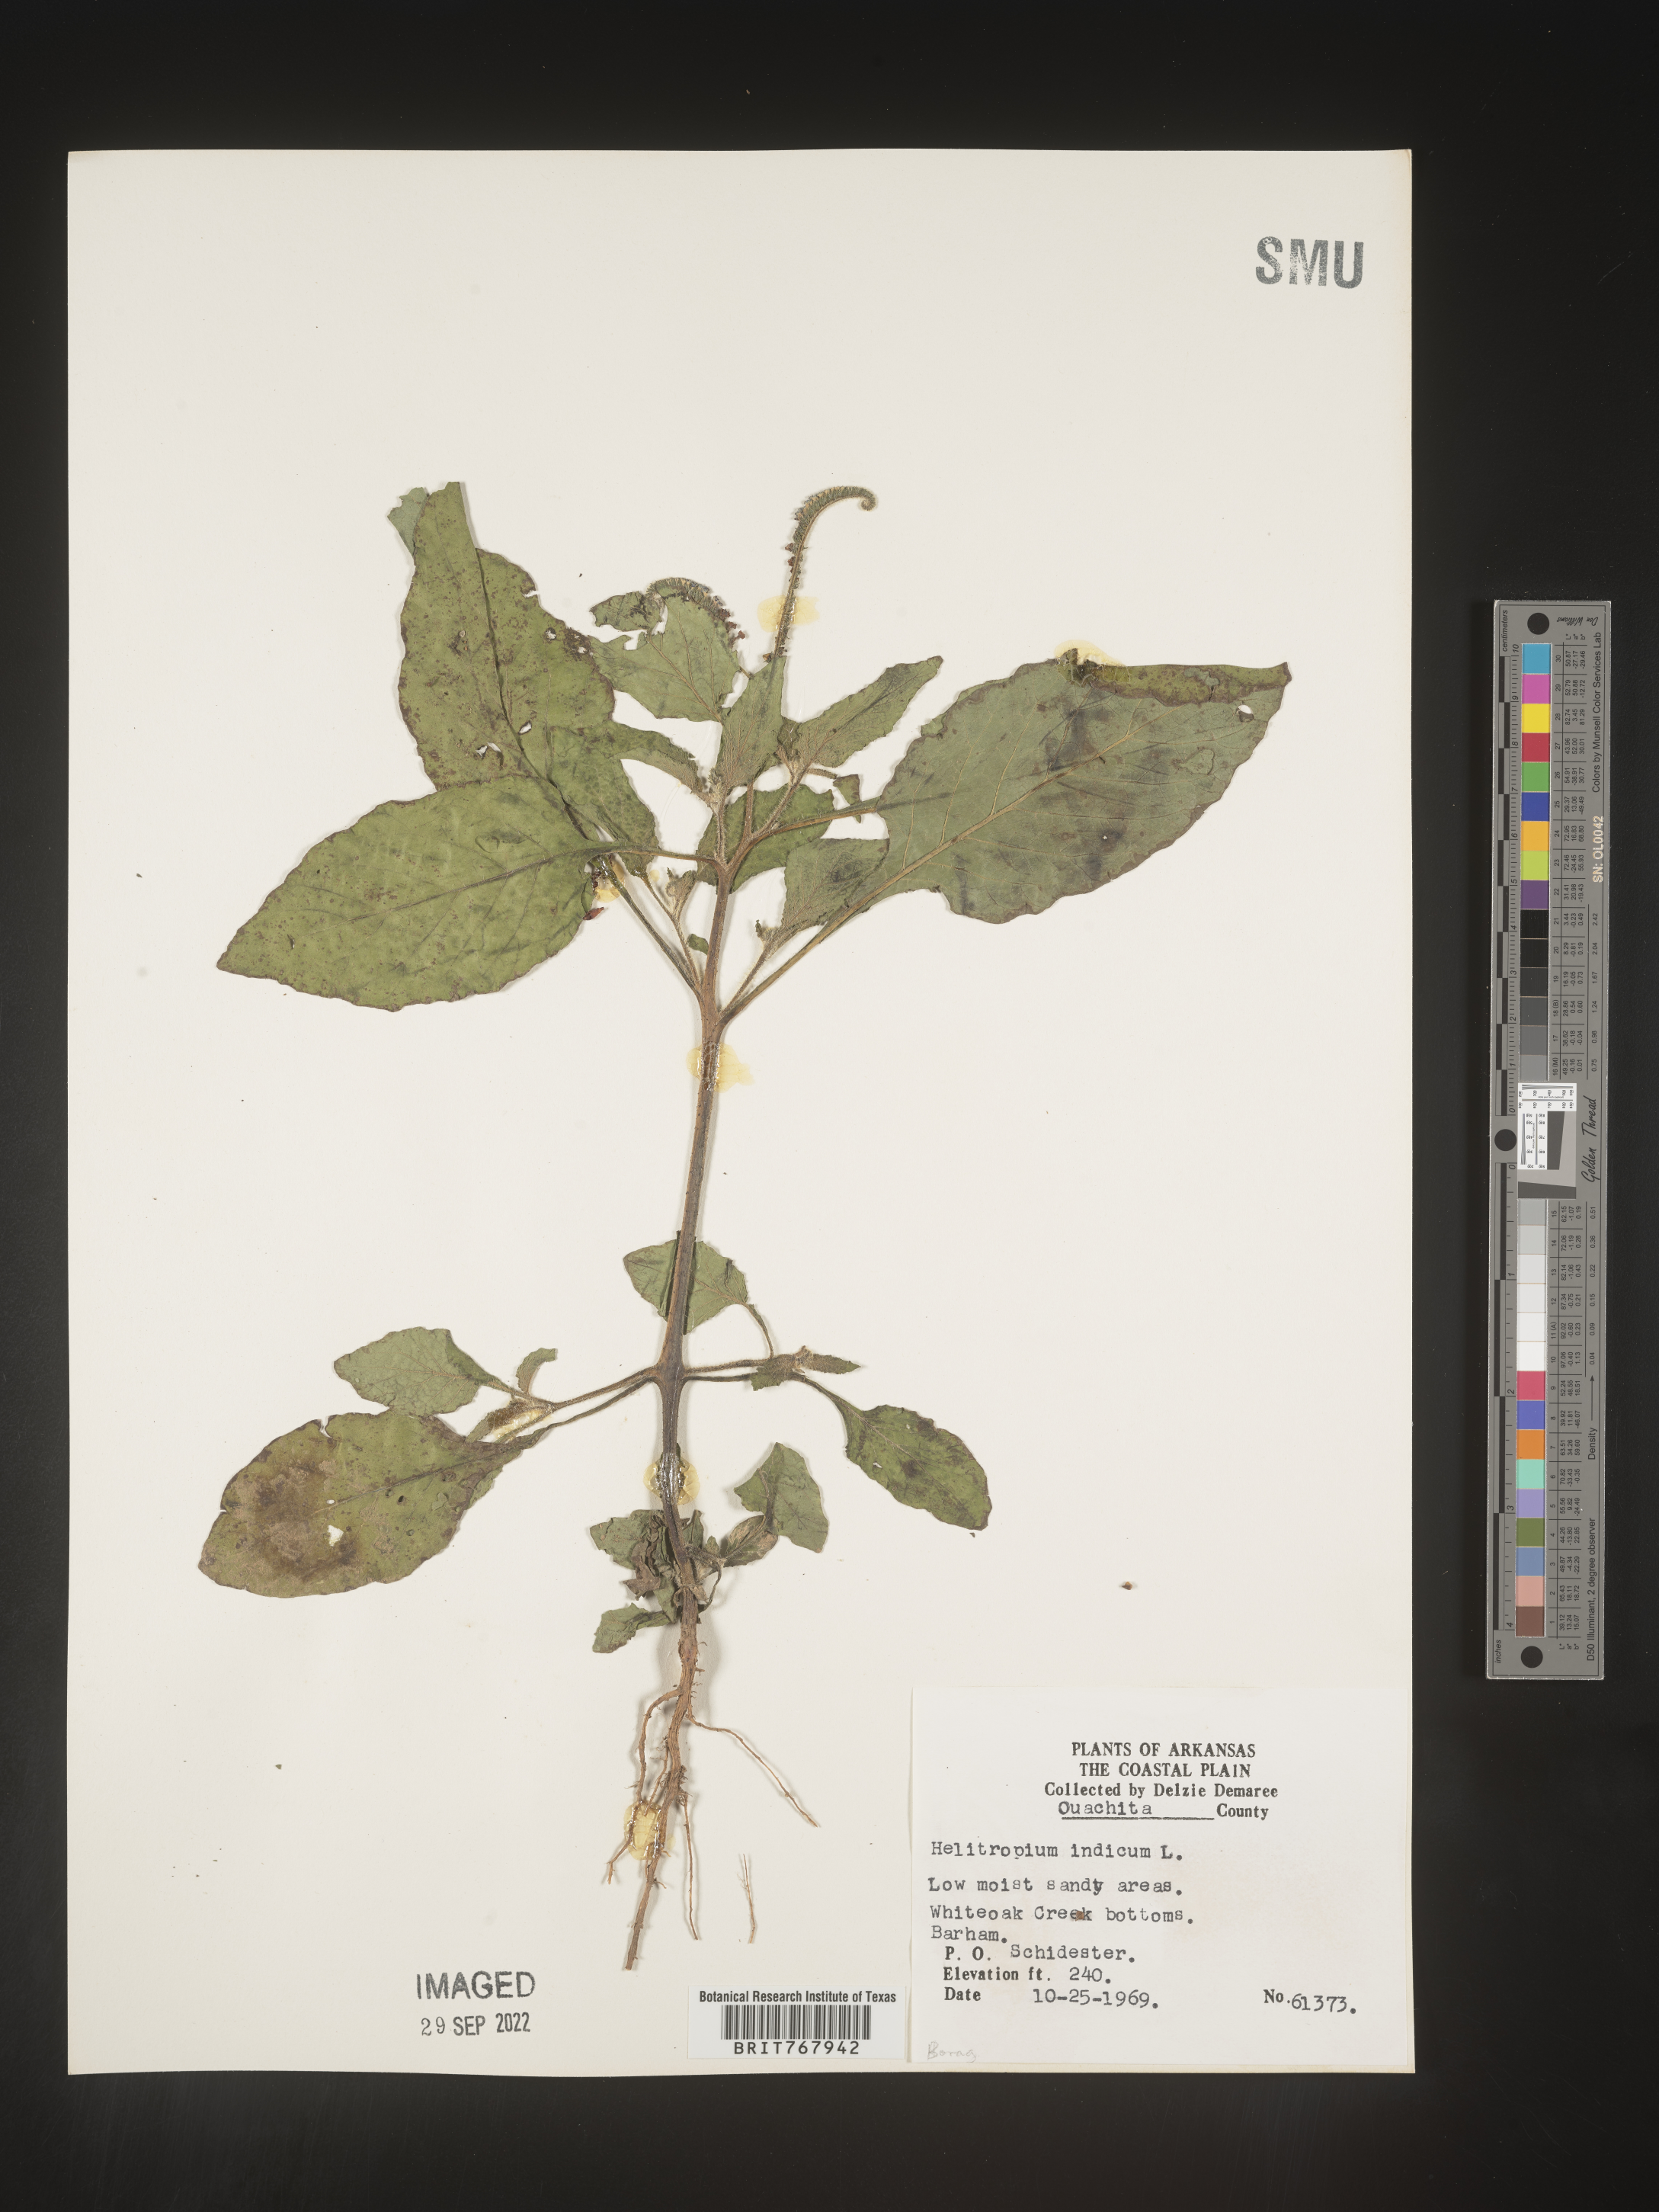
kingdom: Plantae
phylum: Tracheophyta
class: Magnoliopsida
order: Boraginales
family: Heliotropiaceae
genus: Heliotropium
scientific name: Heliotropium indicum
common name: Indian heliotrope
